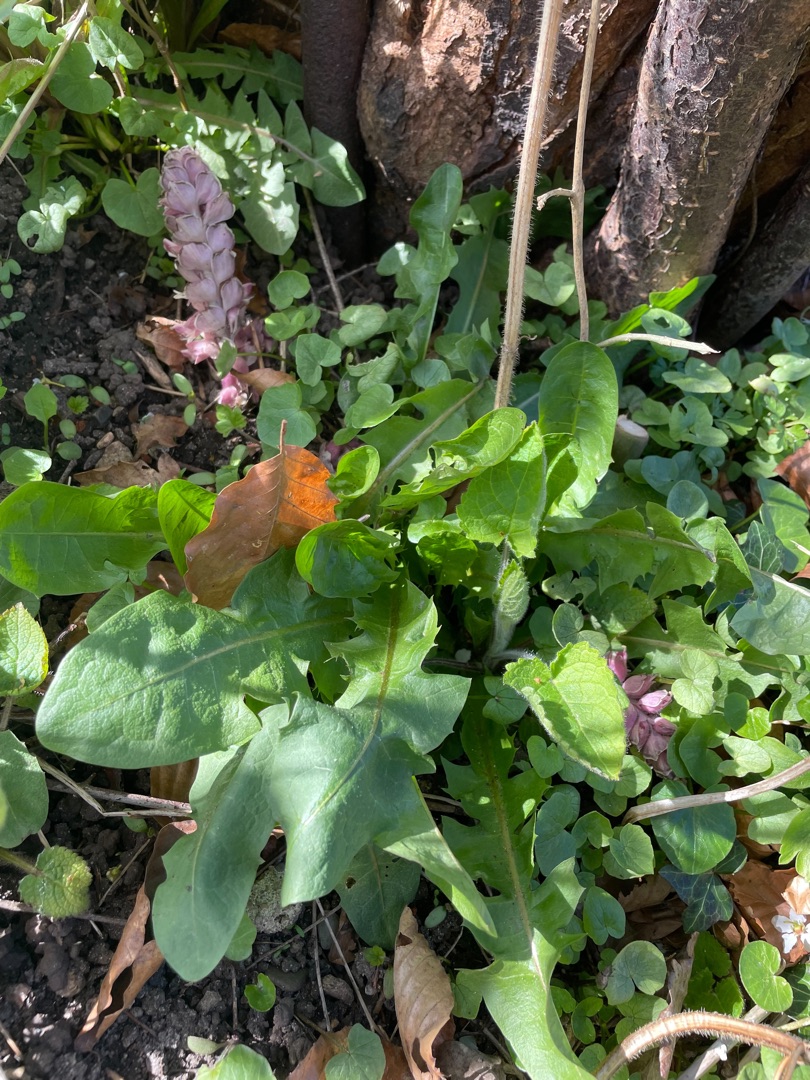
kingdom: Plantae
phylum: Tracheophyta
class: Magnoliopsida
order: Lamiales
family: Orobanchaceae
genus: Lathraea
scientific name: Lathraea squamaria
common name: Skælrod
